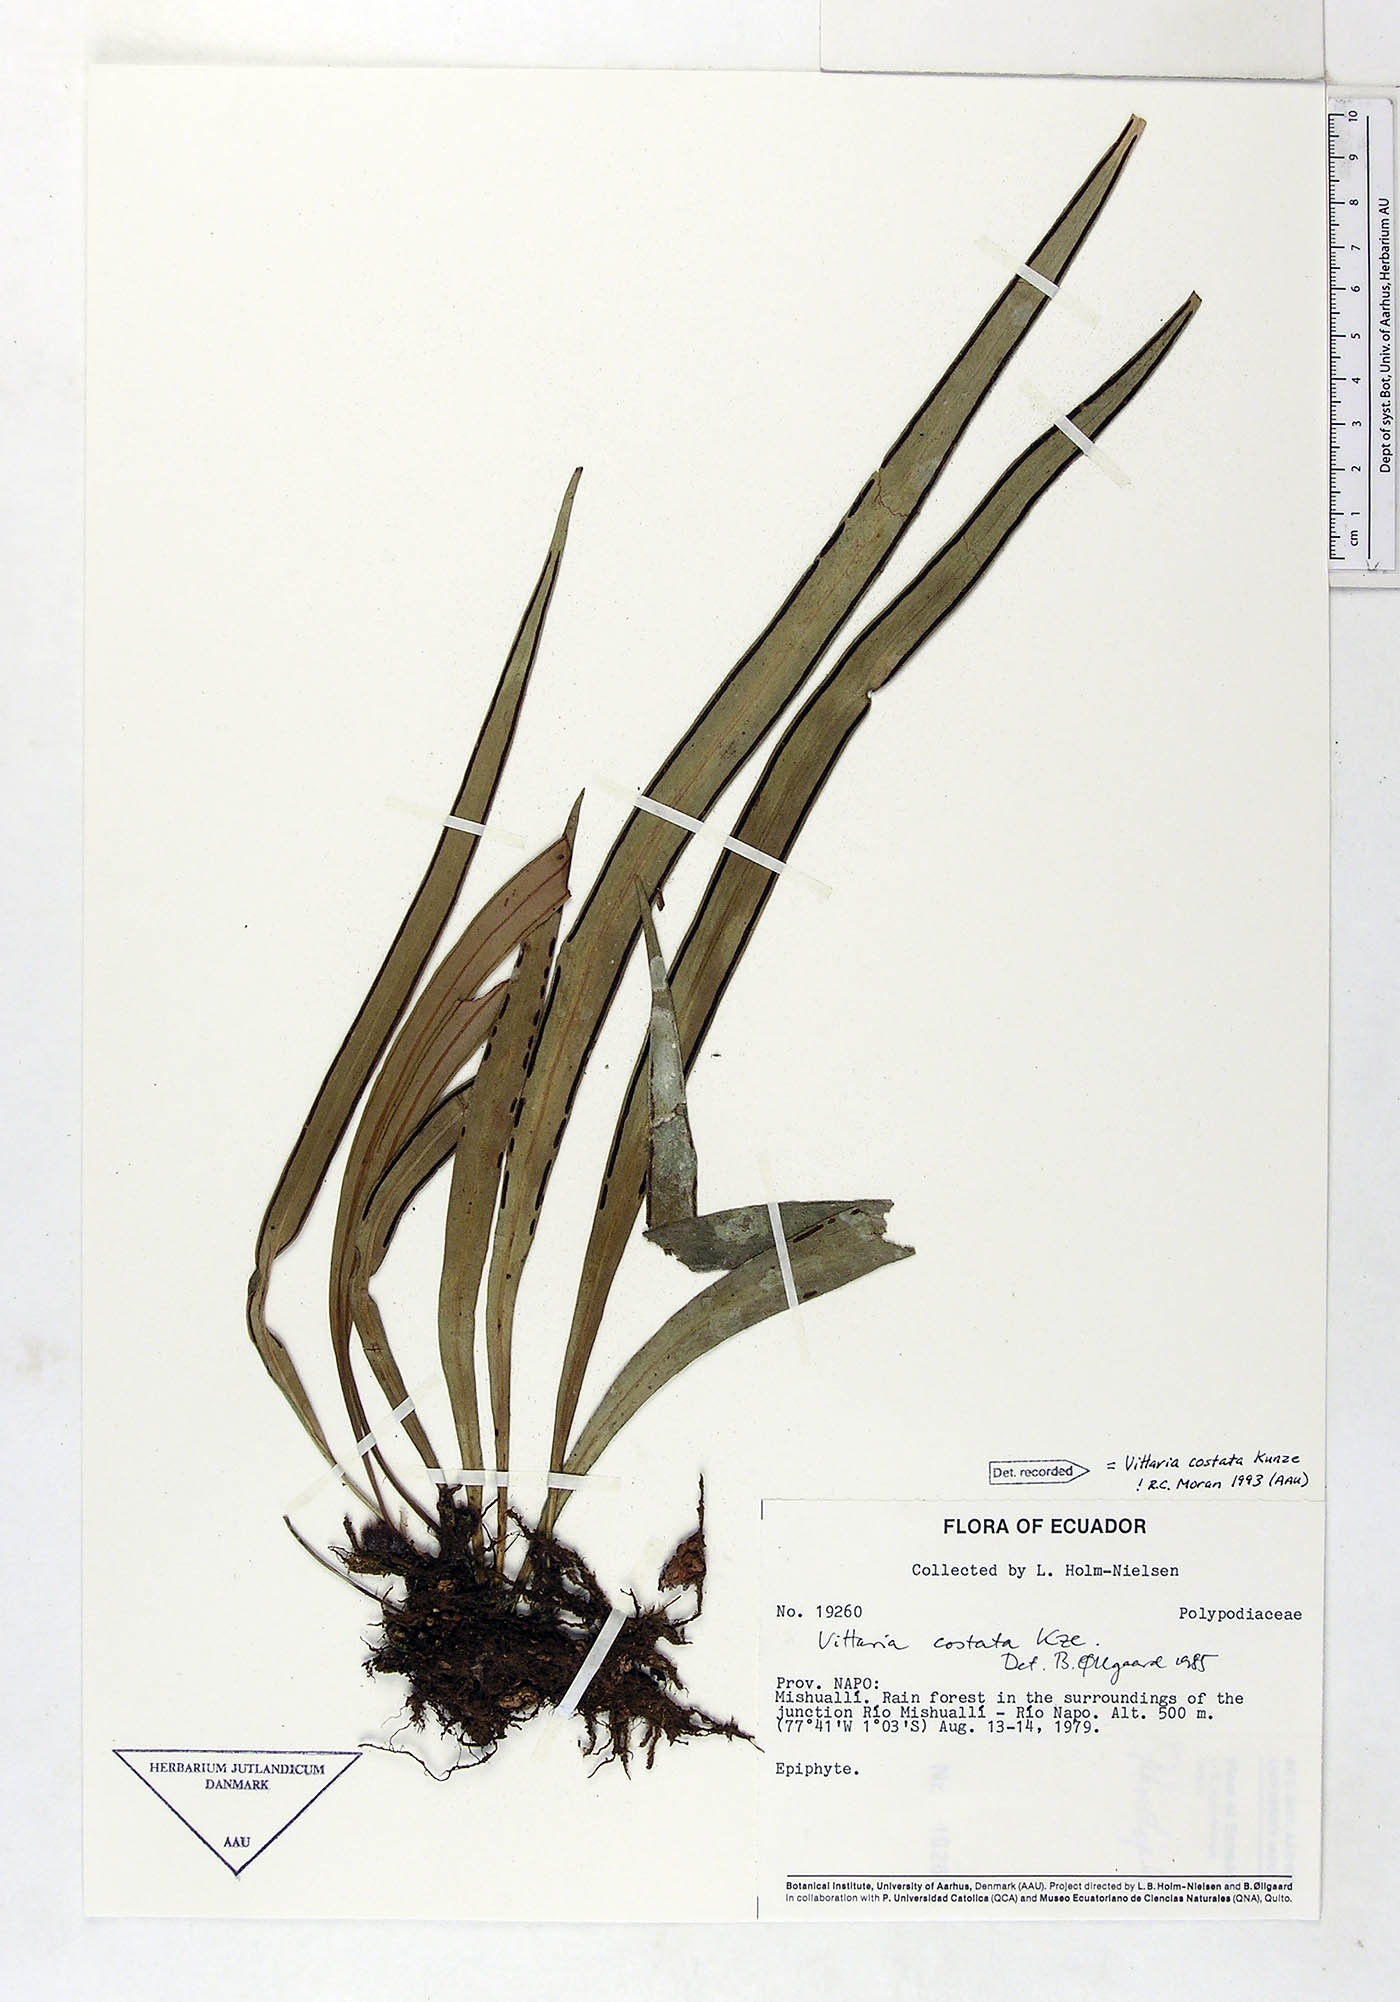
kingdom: Plantae
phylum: Tracheophyta
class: Polypodiopsida
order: Polypodiales
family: Pteridaceae
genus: Ananthacorus
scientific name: Ananthacorus angustifolius
